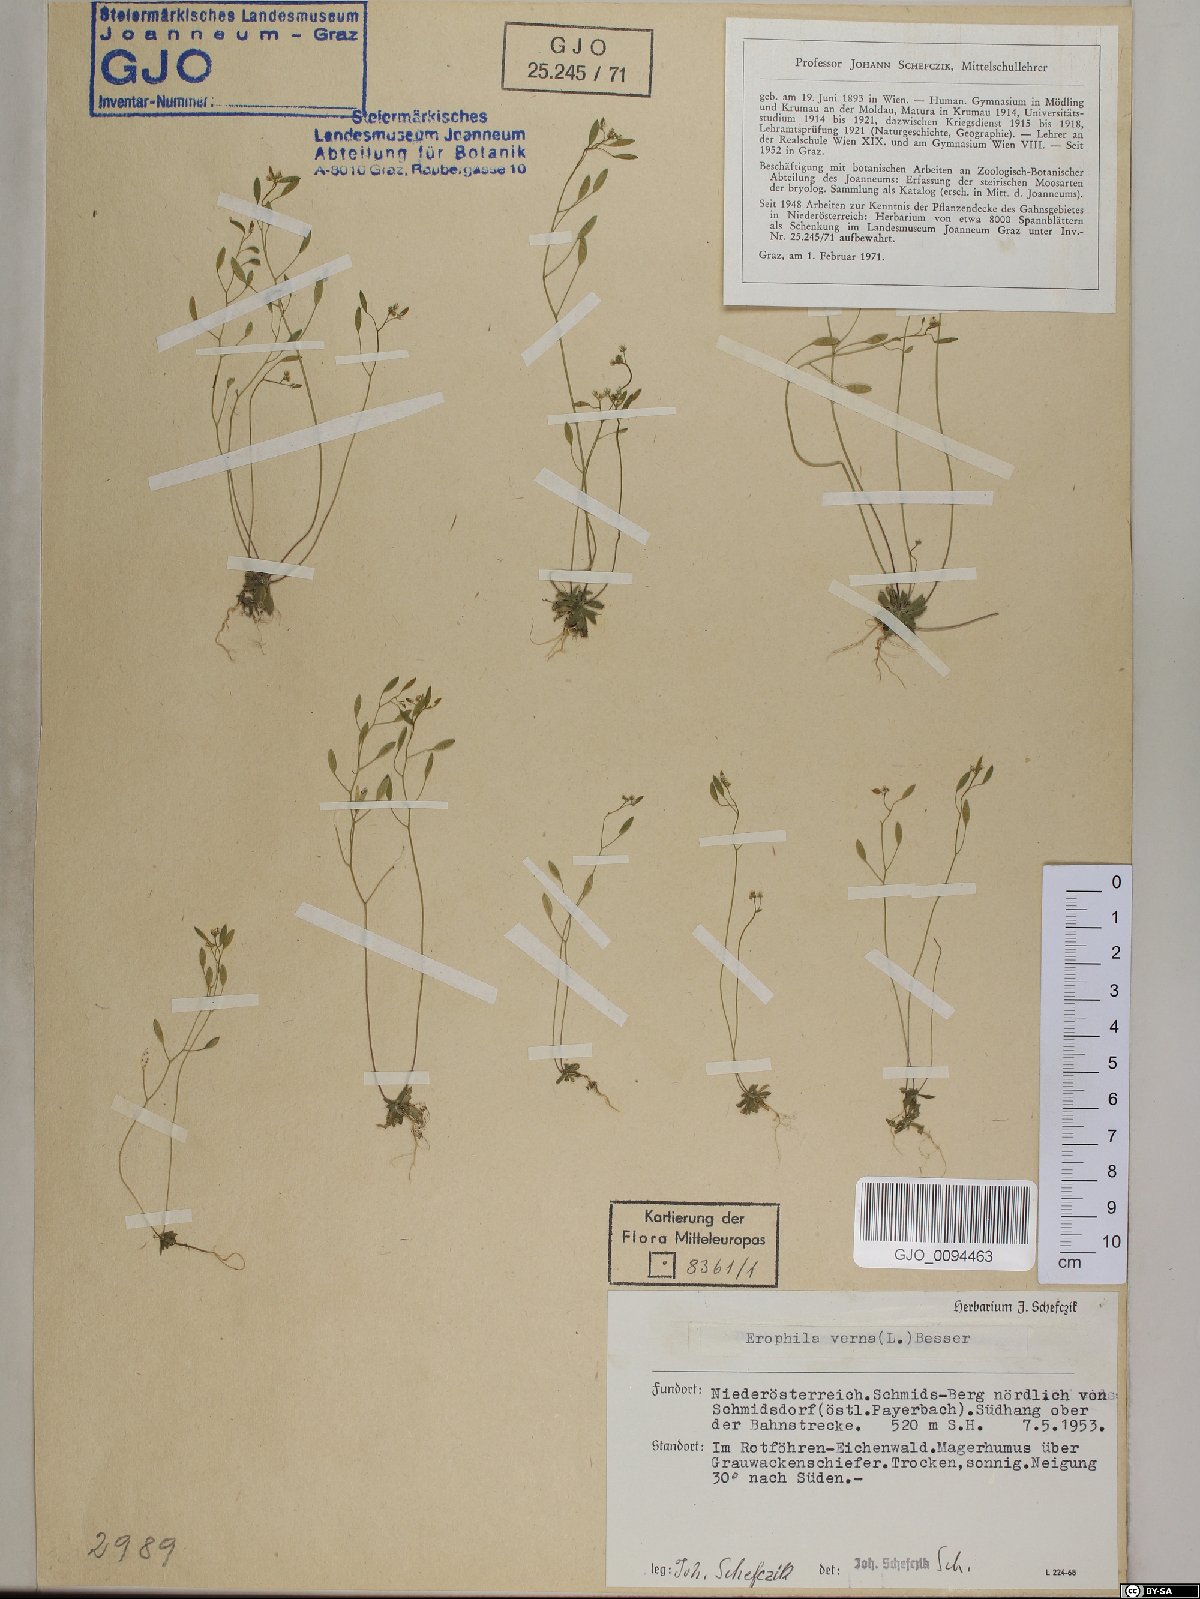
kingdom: Plantae
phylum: Tracheophyta
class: Magnoliopsida
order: Brassicales
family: Brassicaceae
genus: Draba
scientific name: Draba verna
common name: Spring draba
